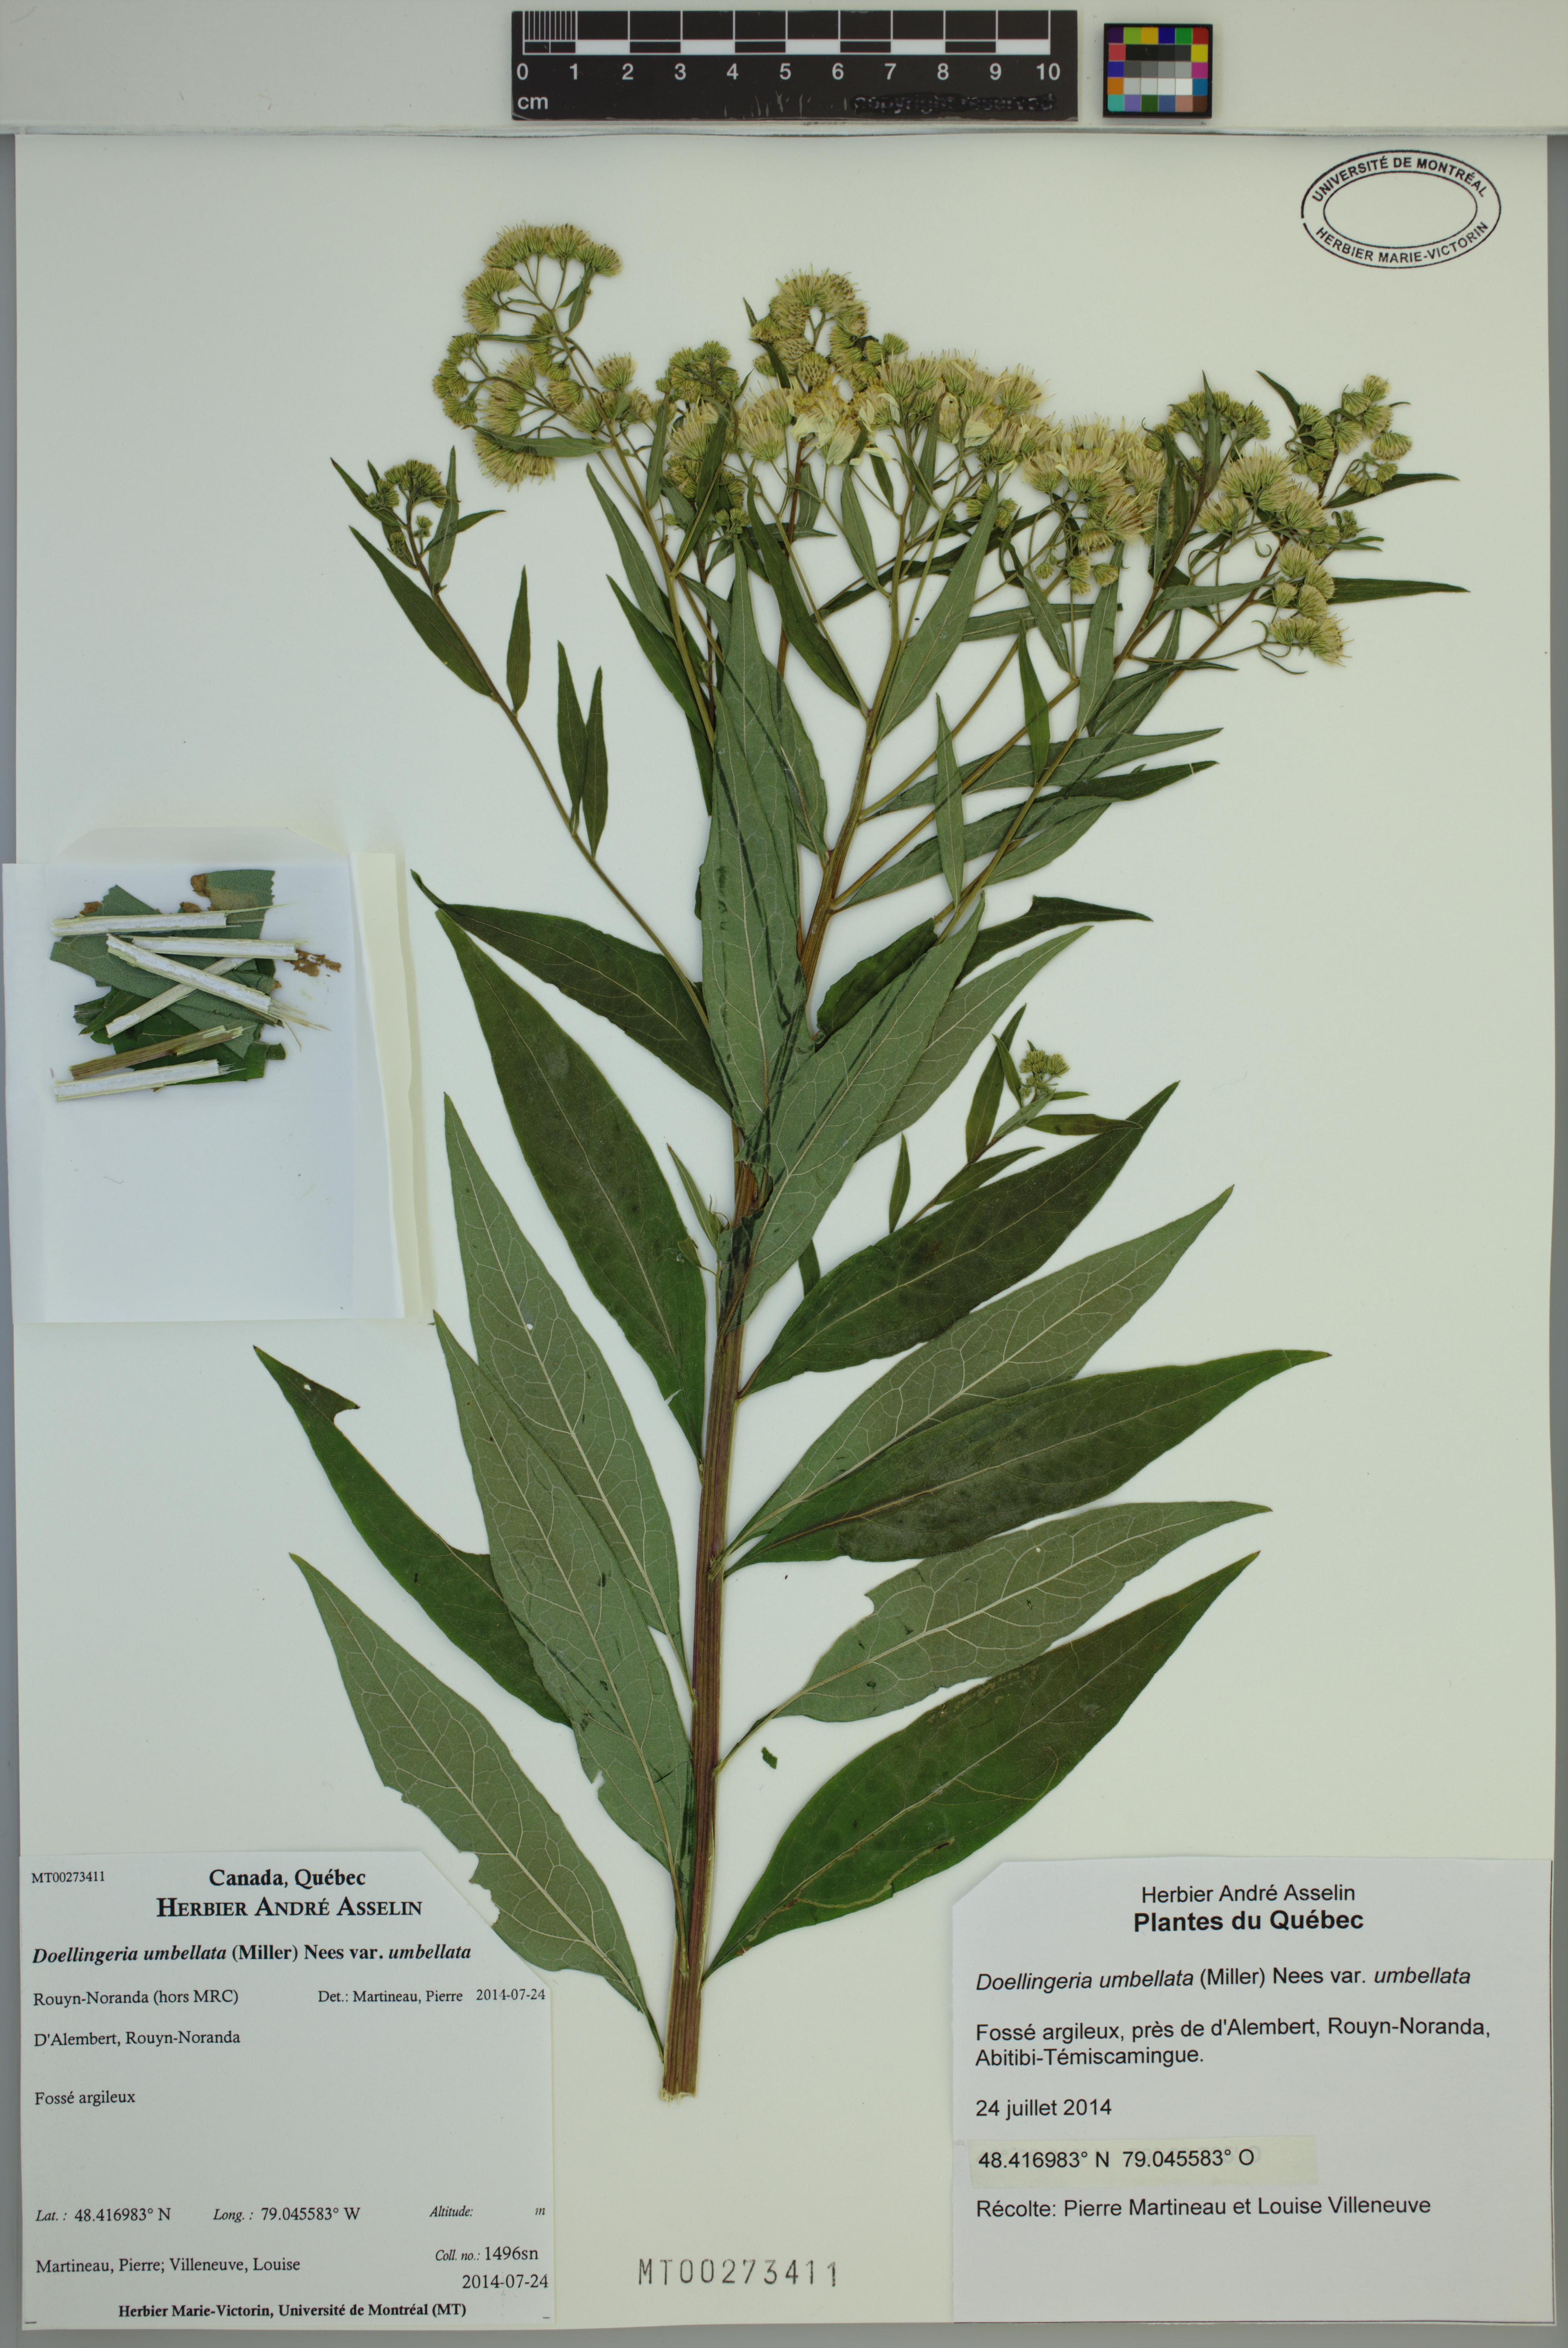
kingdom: Plantae
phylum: Tracheophyta
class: Magnoliopsida
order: Asterales
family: Asteraceae
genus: Doellingeria
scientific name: Doellingeria umbellata
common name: Flat-top white aster
